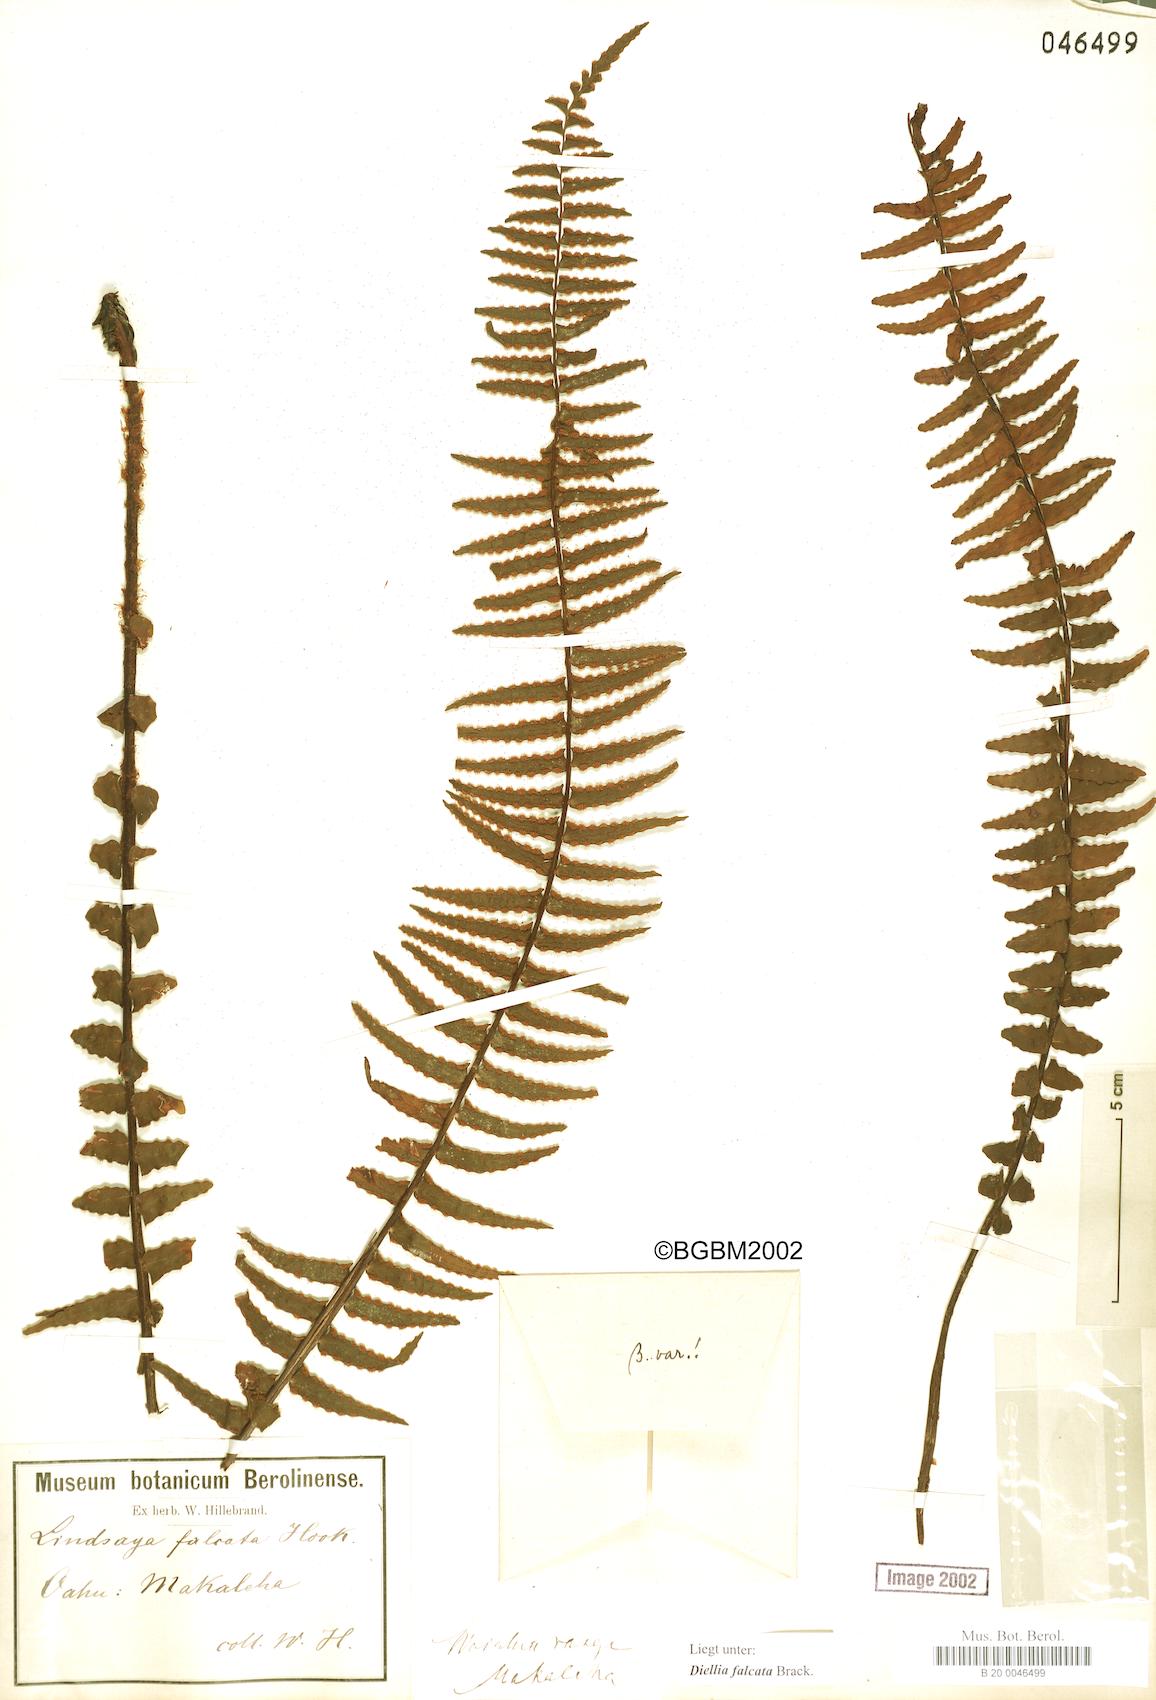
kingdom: Plantae
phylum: Tracheophyta
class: Polypodiopsida
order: Polypodiales
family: Aspleniaceae
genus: Asplenium
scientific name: Asplenium dielfalcatum
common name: Sickle island spleenwort
